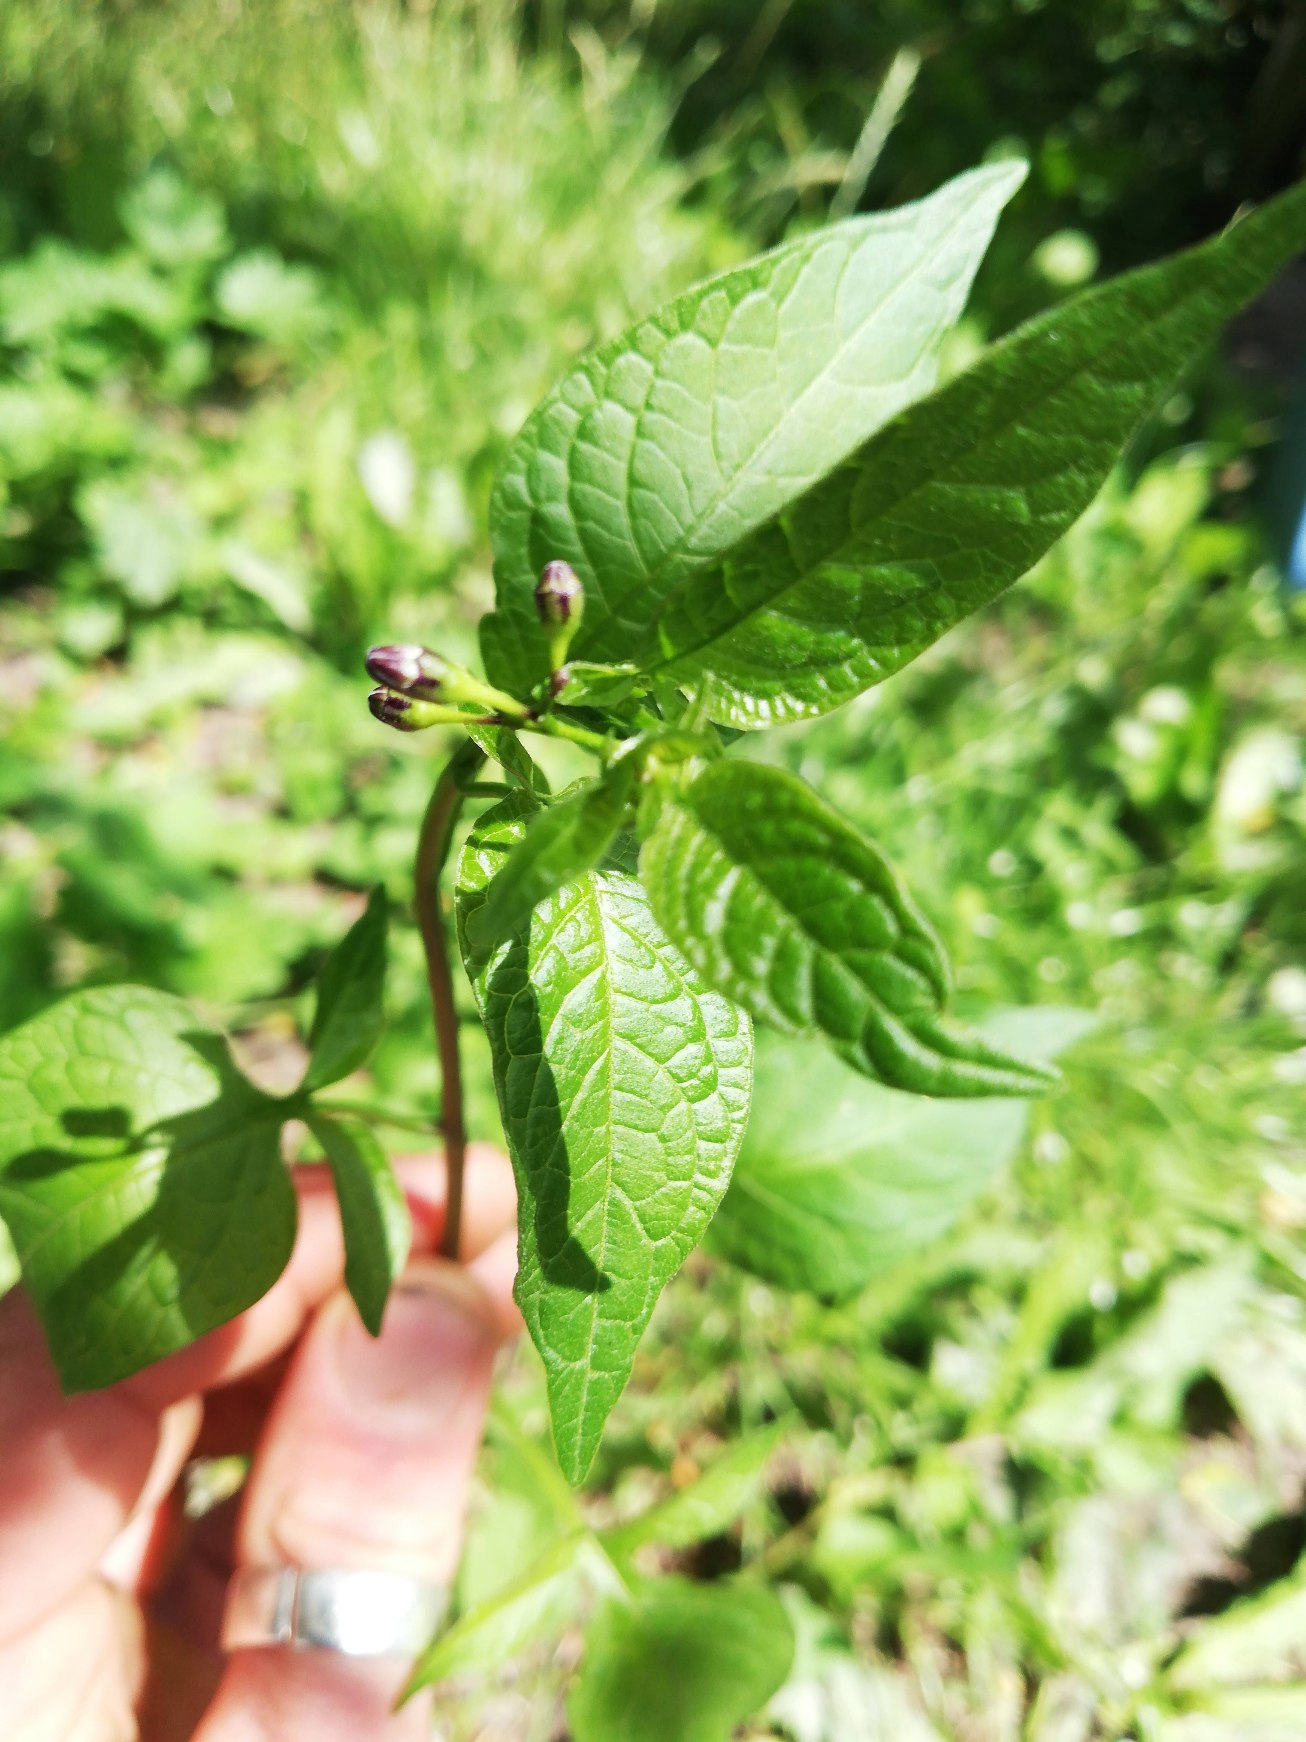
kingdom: Plantae
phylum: Tracheophyta
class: Magnoliopsida
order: Solanales
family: Solanaceae
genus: Solanum
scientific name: Solanum dulcamara
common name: Bittersød natskygge
